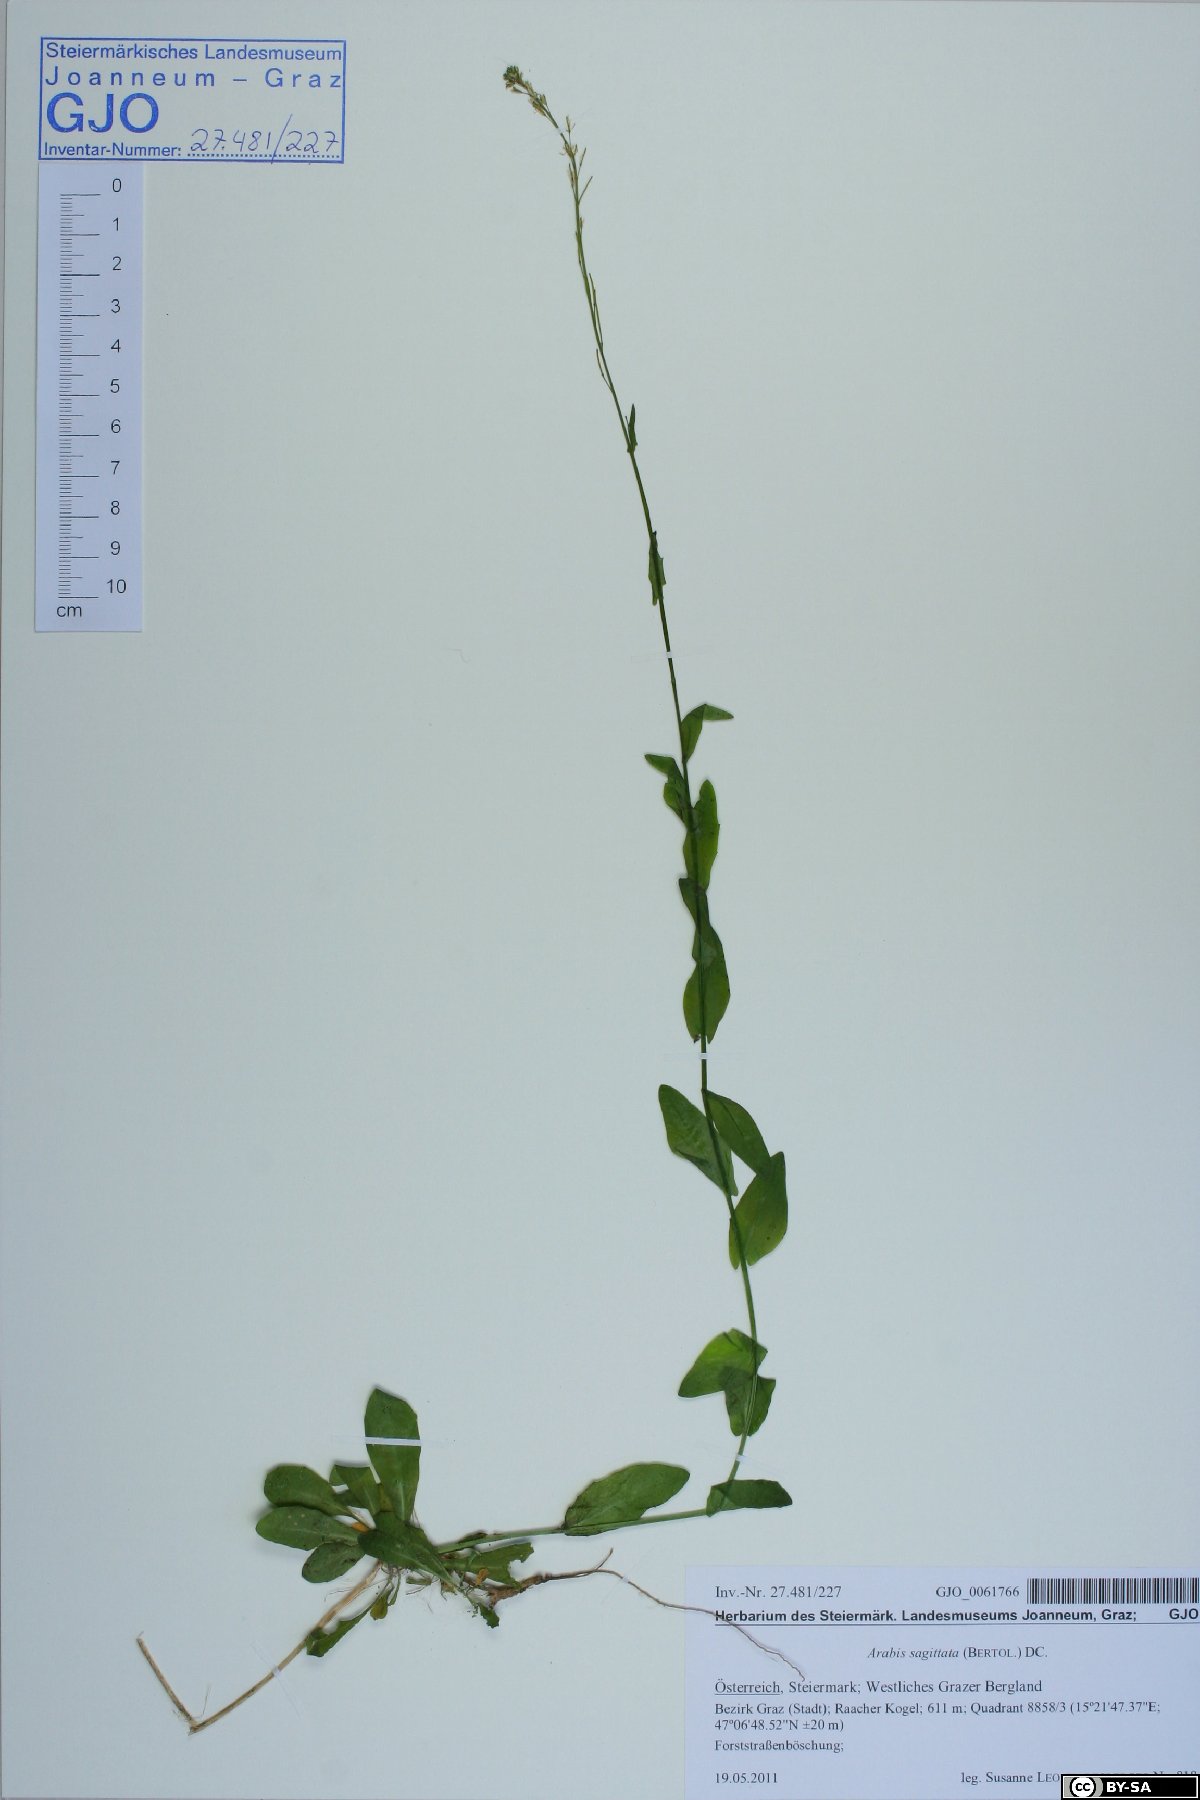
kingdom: Plantae
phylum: Tracheophyta
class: Magnoliopsida
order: Brassicales
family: Brassicaceae
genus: Arabis
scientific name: Arabis sagittata
